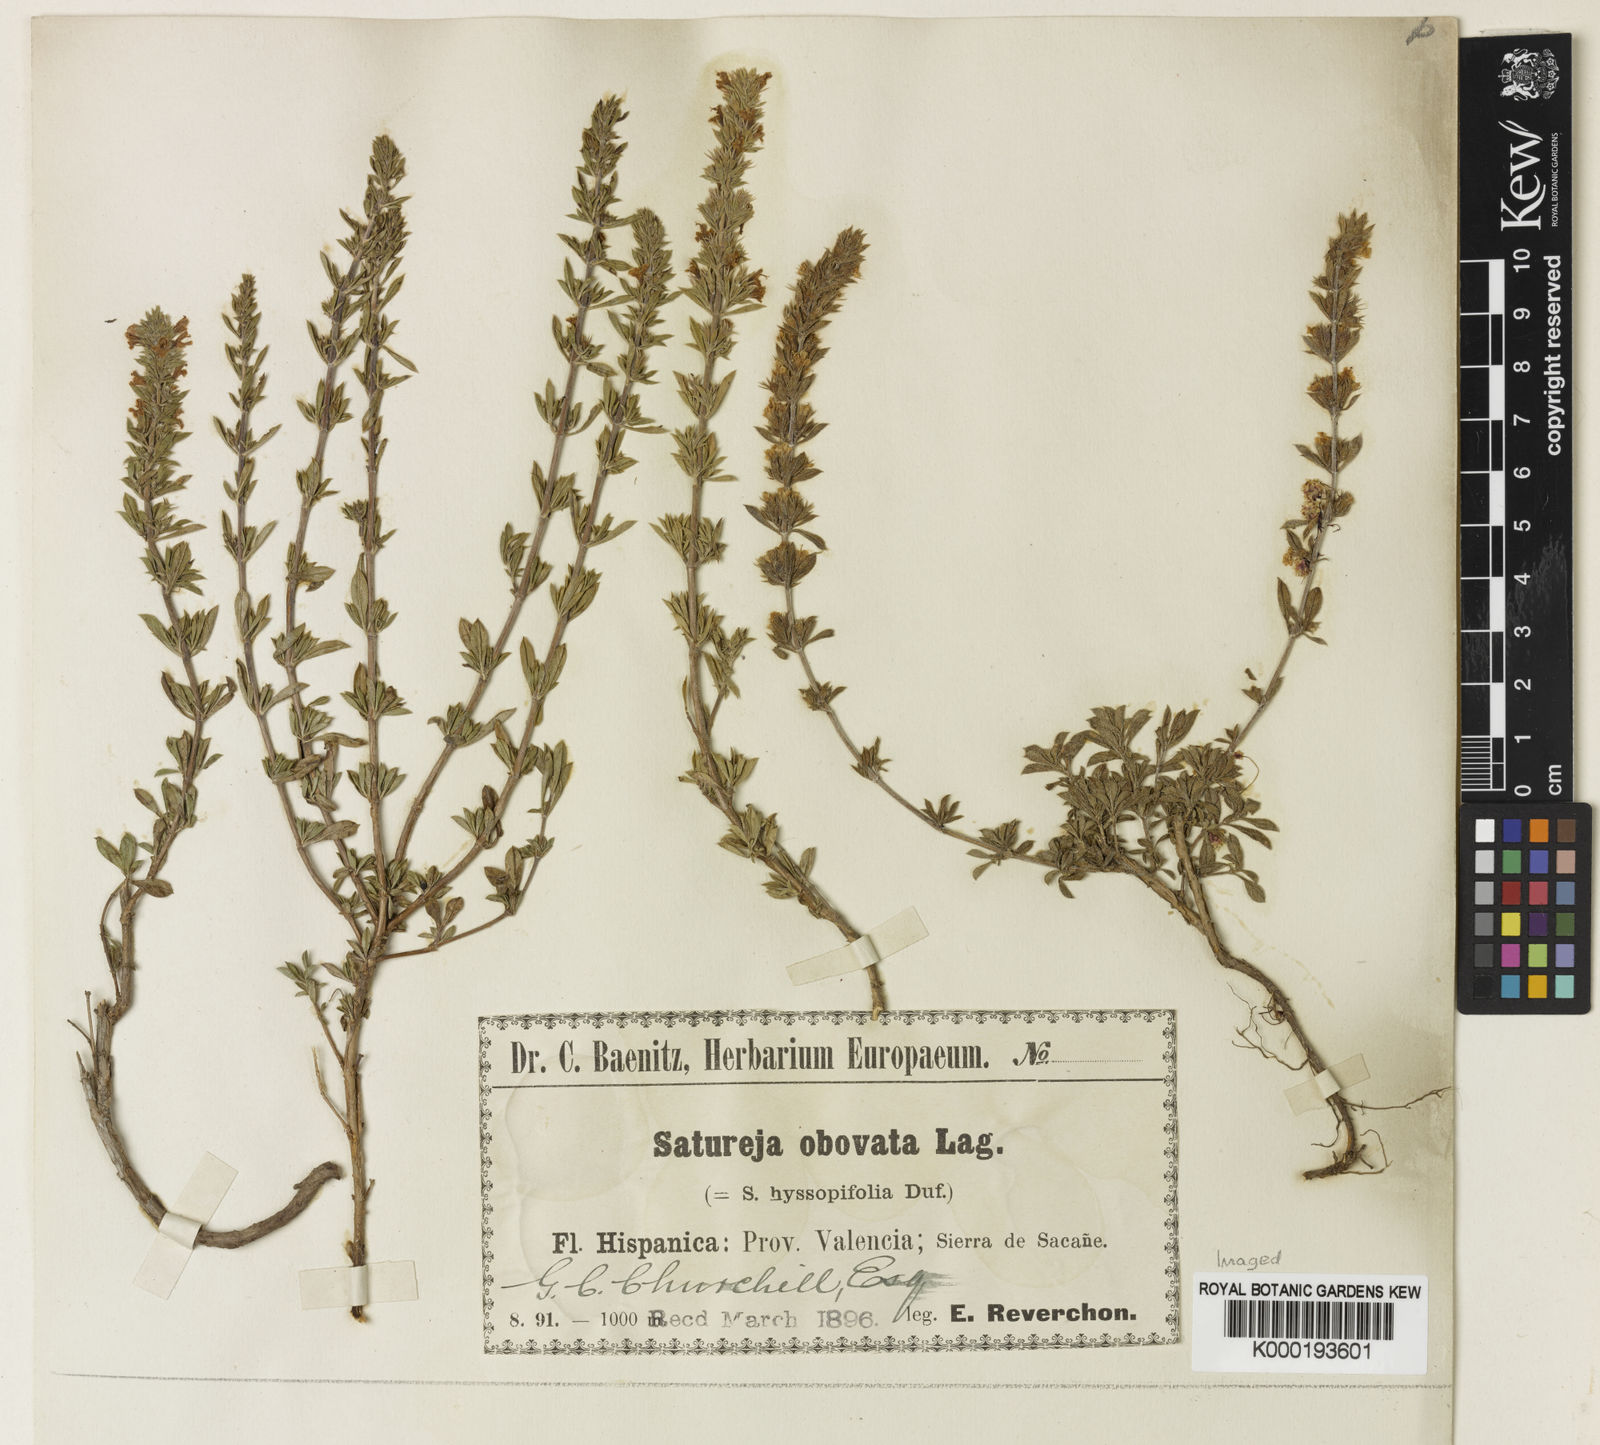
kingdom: Plantae
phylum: Tracheophyta
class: Magnoliopsida
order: Lamiales
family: Lamiaceae
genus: Satureja
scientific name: Satureja
